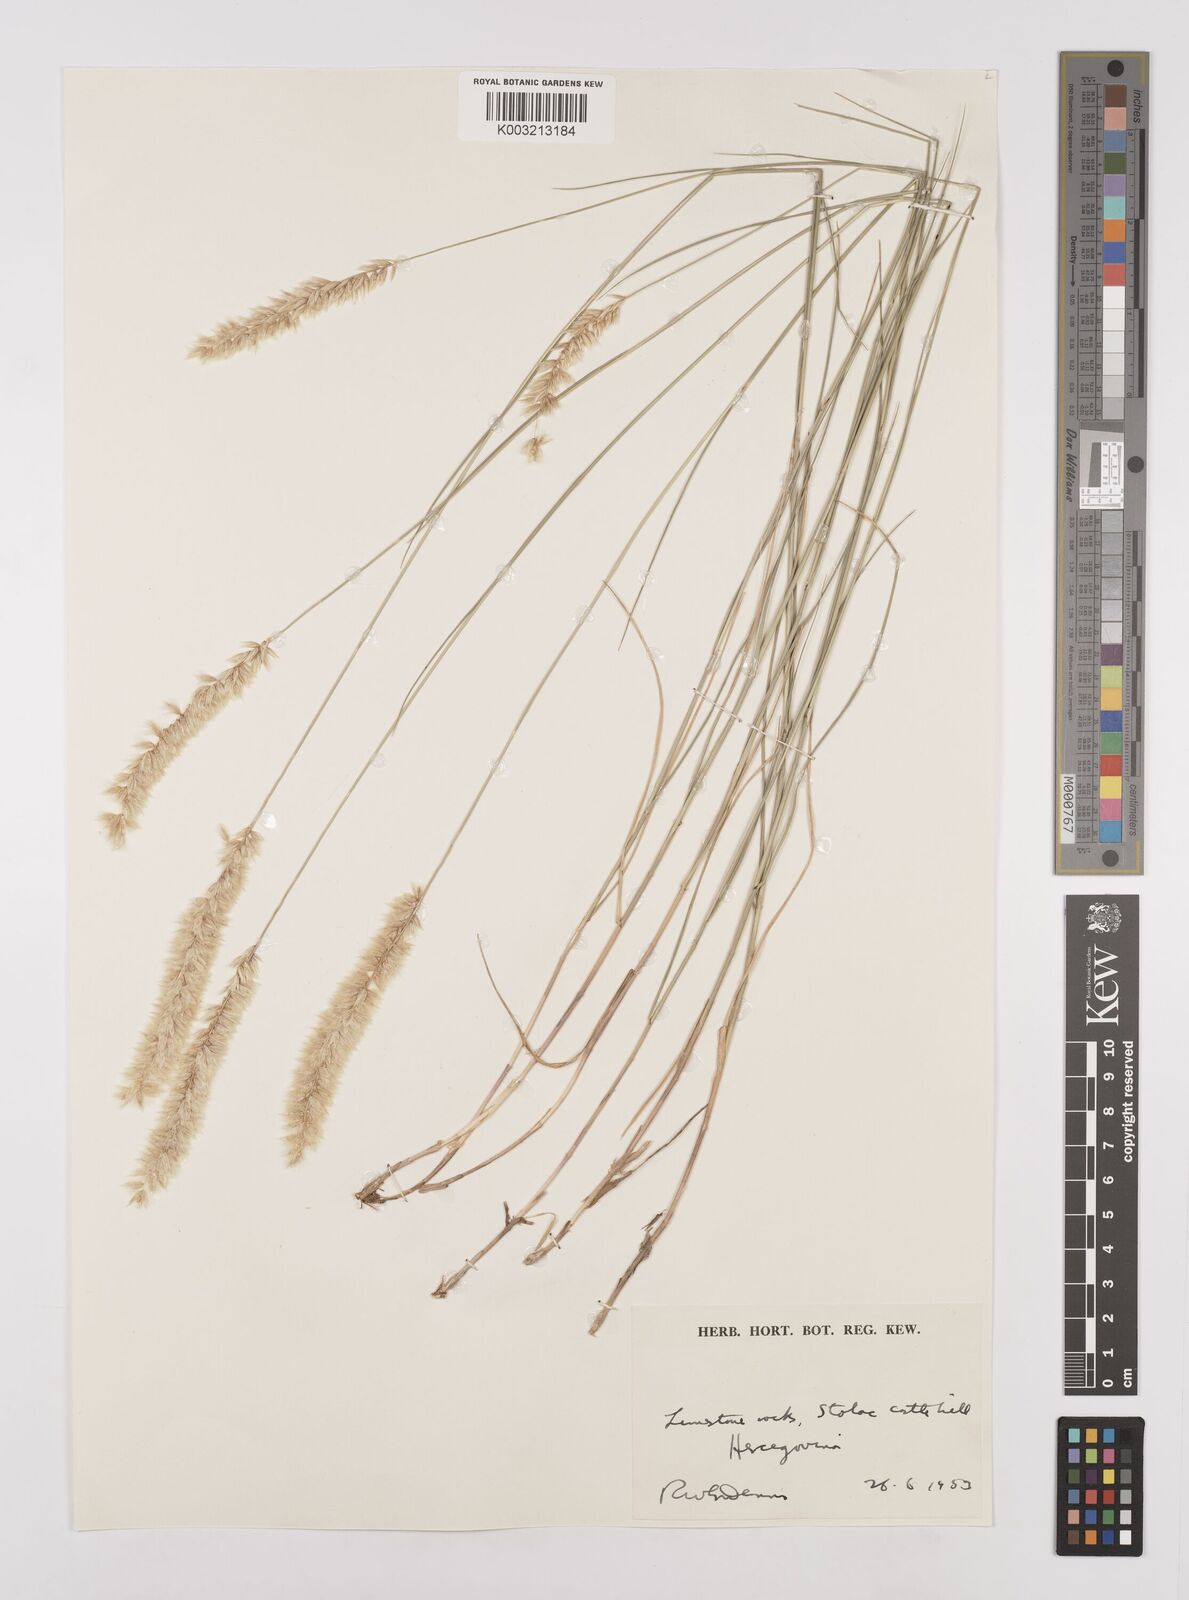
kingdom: Plantae
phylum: Tracheophyta
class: Liliopsida
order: Poales
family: Poaceae
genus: Melica
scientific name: Melica ciliata
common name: Hairy melicgrass
